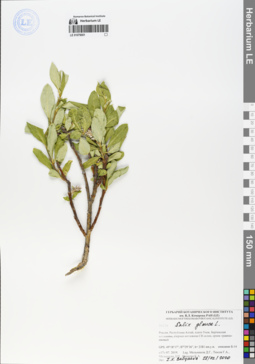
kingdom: Plantae
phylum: Tracheophyta
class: Magnoliopsida
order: Malpighiales
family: Salicaceae
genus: Salix
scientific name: Salix glauca
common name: Glaucous willow
